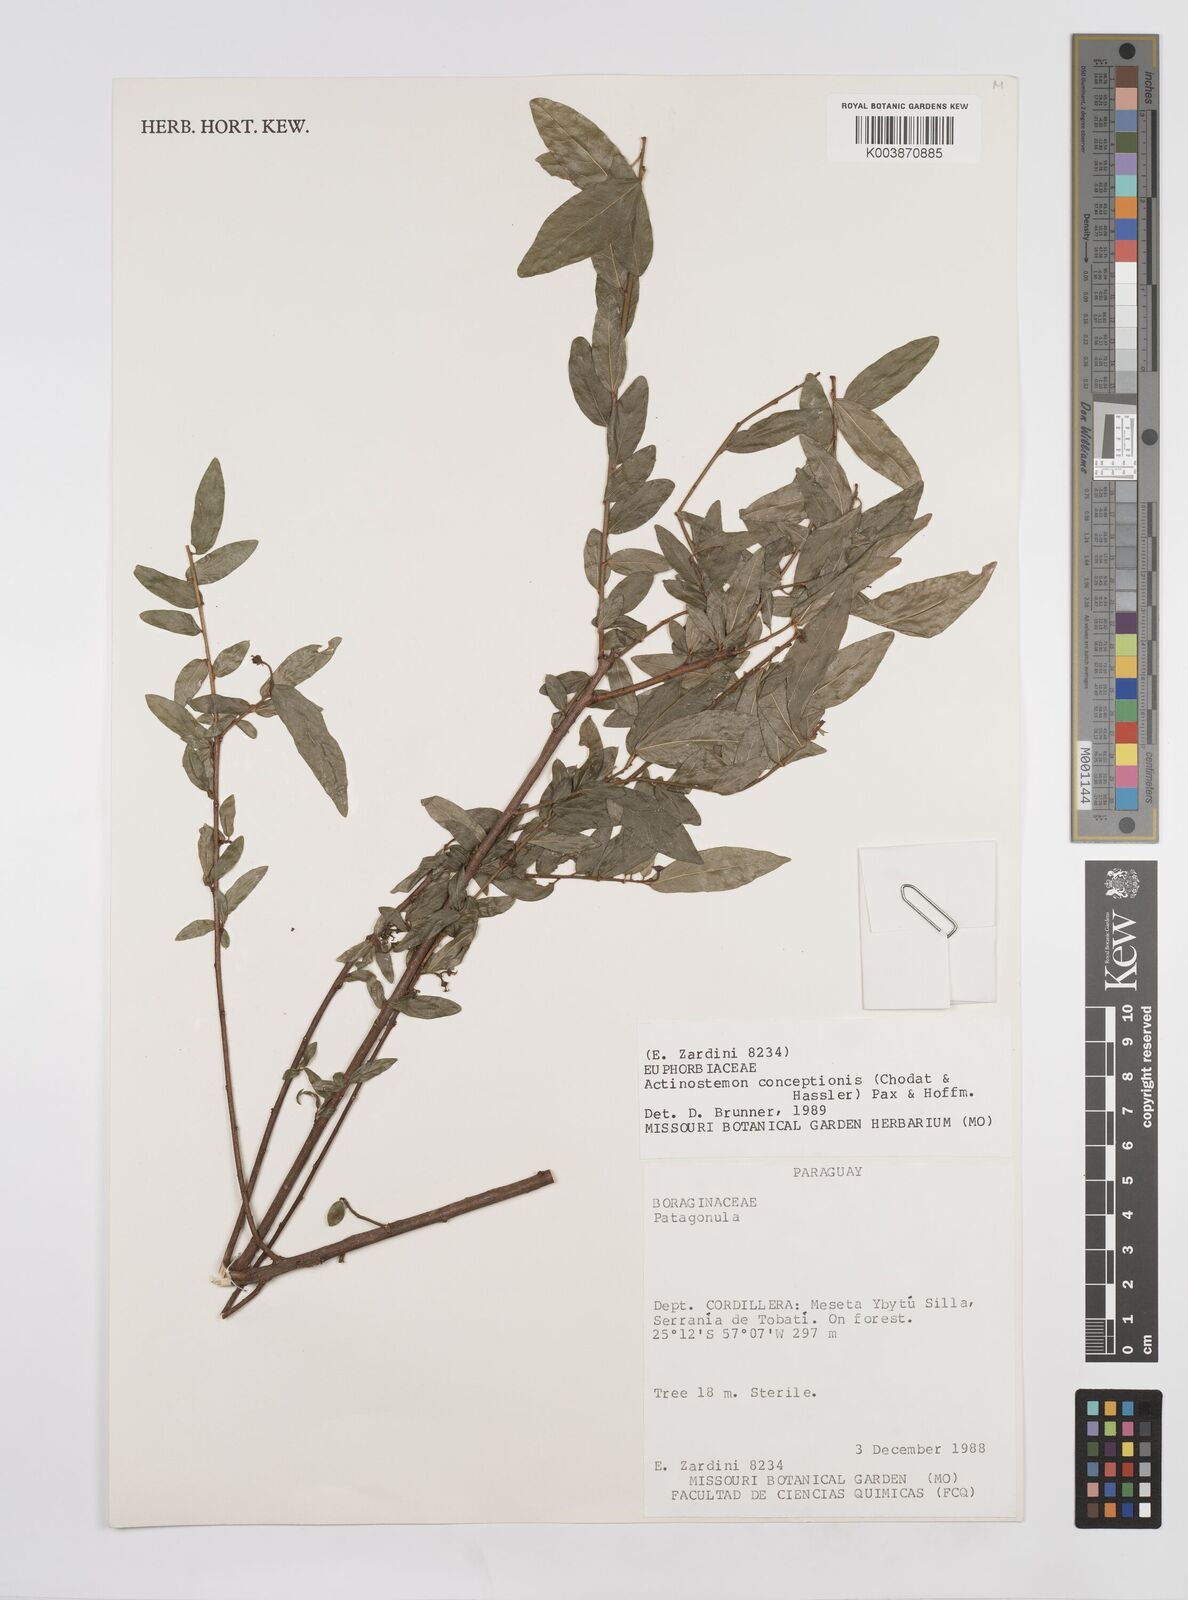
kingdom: Plantae
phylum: Tracheophyta
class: Magnoliopsida
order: Malpighiales
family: Euphorbiaceae
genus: Actinostemon
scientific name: Actinostemon concepcionis
